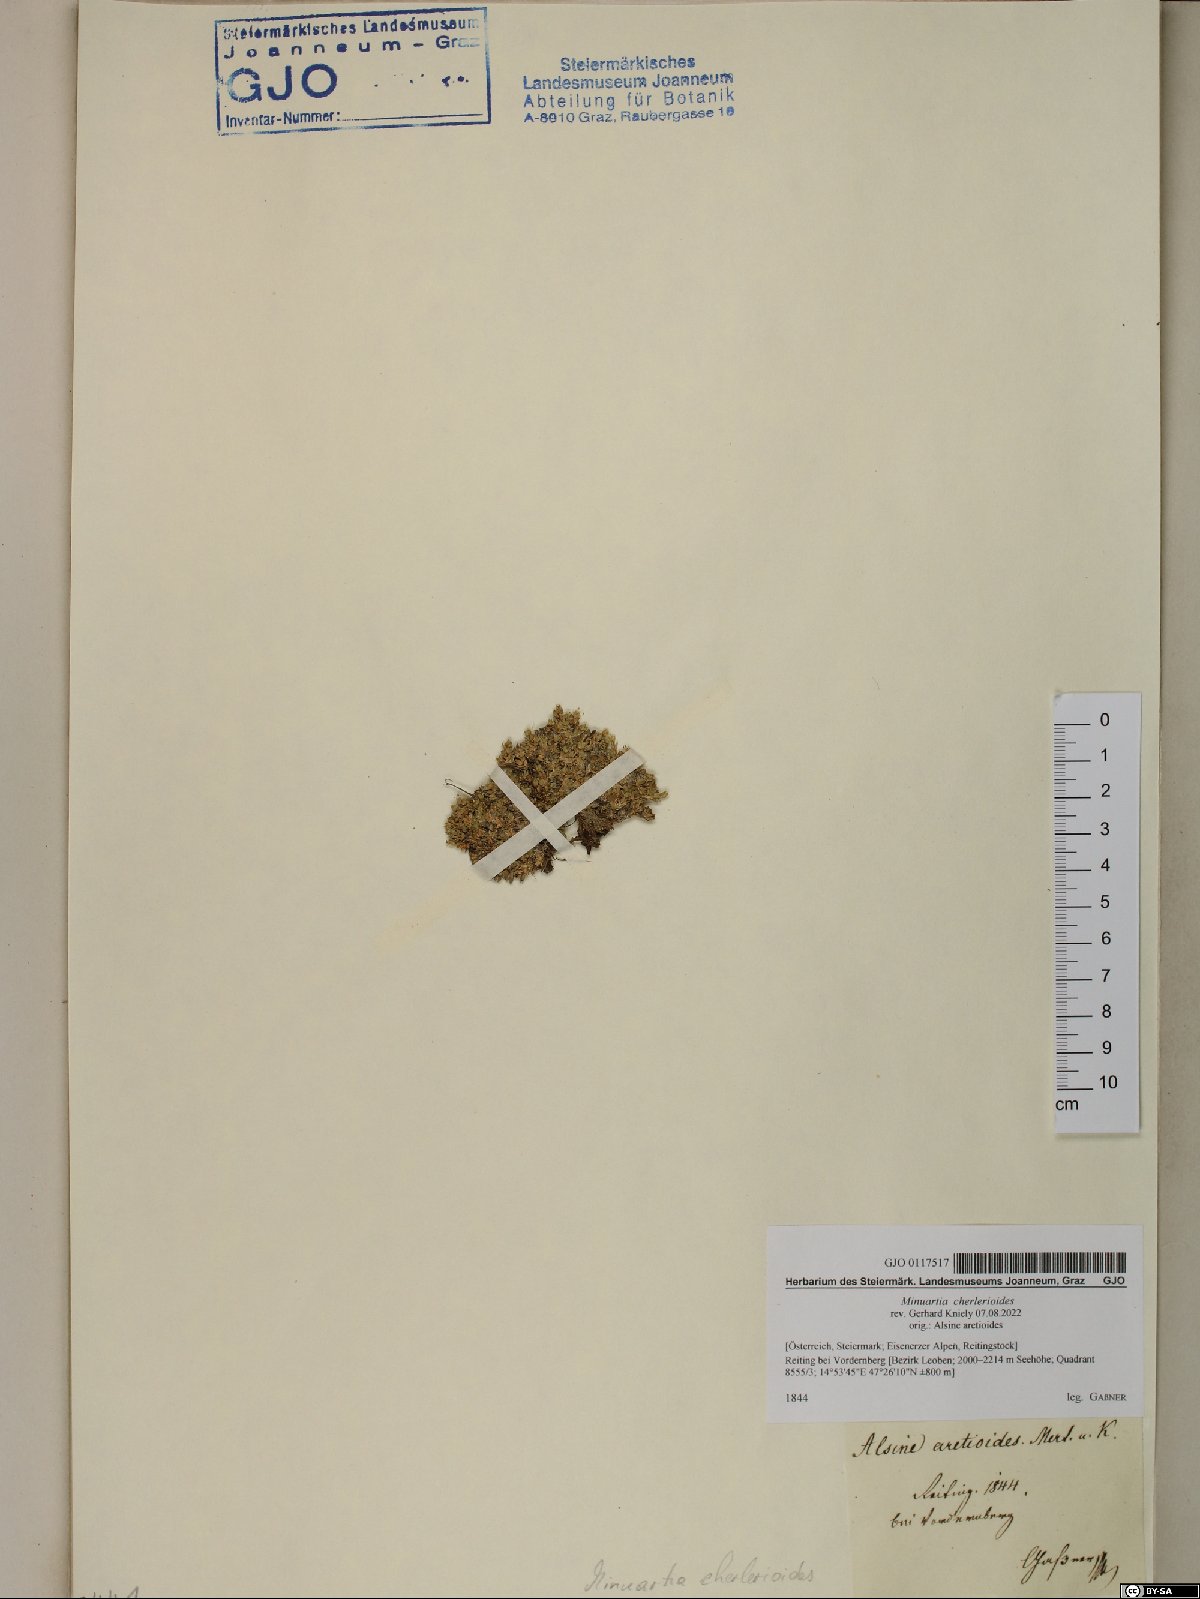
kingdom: Plantae
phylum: Tracheophyta
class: Magnoliopsida
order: Caryophyllales
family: Caryophyllaceae
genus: Facchinia
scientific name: Facchinia cherlerioides
